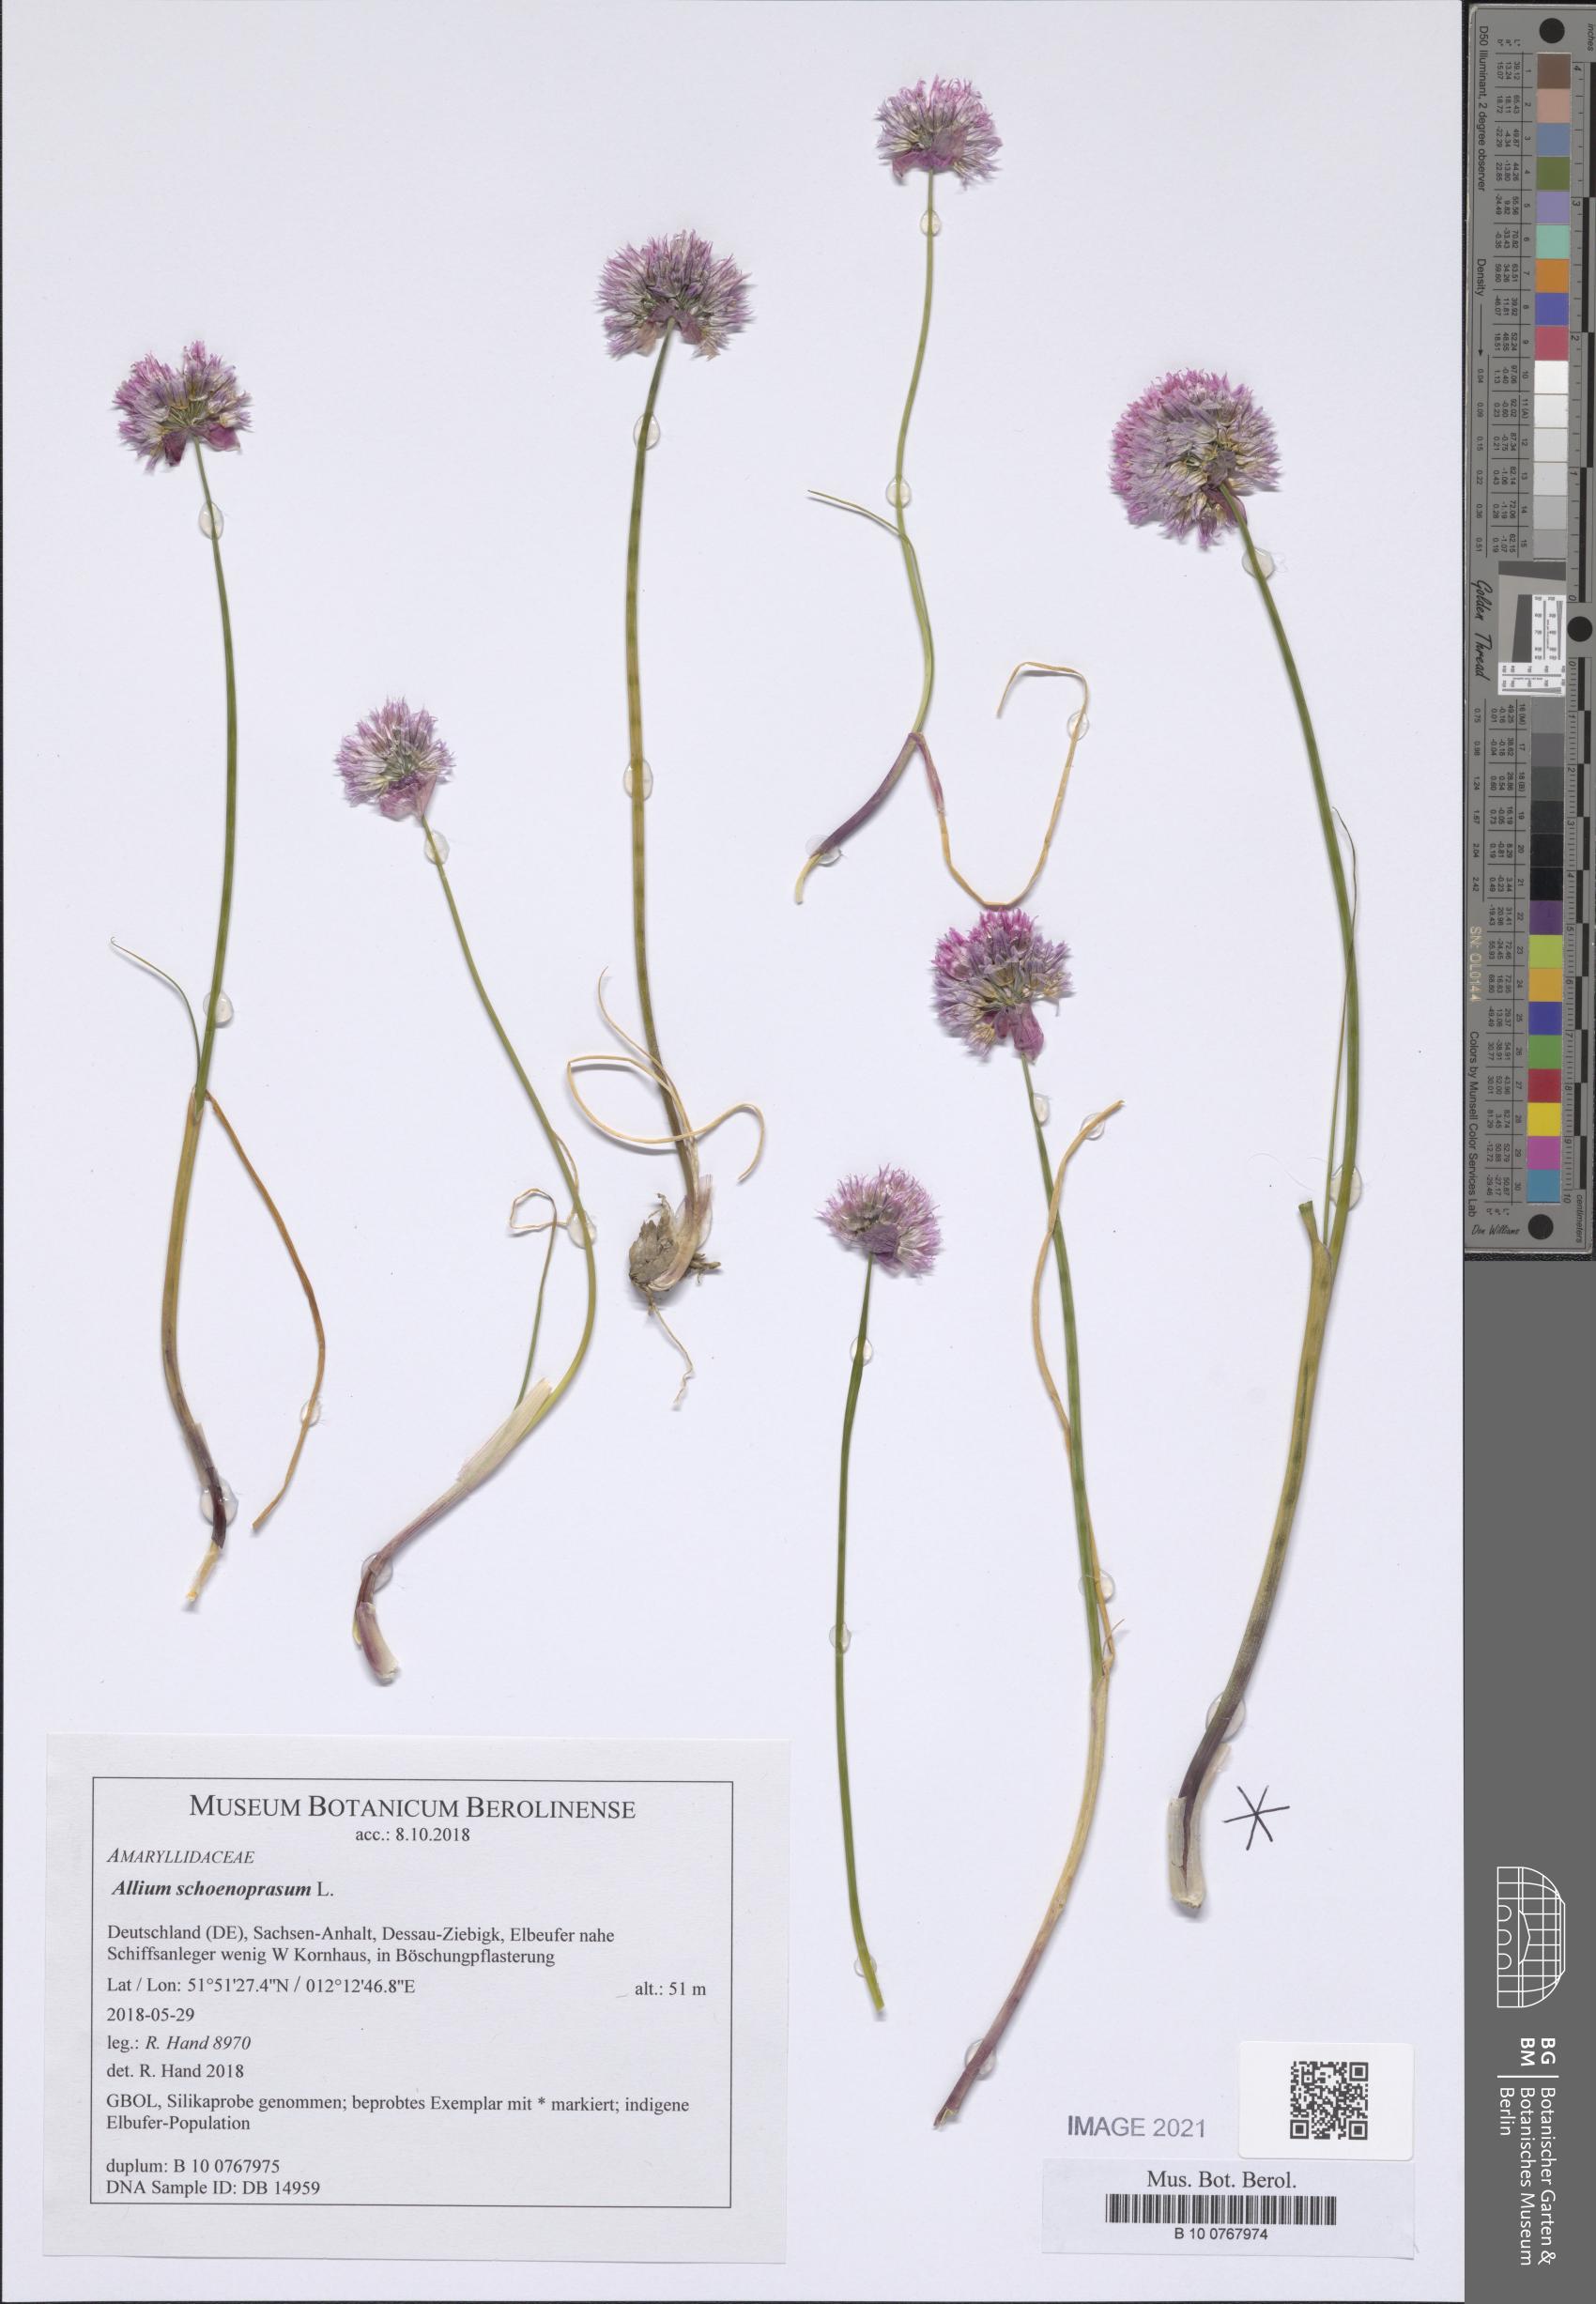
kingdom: Plantae
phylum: Tracheophyta
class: Liliopsida
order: Asparagales
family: Amaryllidaceae
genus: Allium
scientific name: Allium schoenoprasum
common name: Chives
